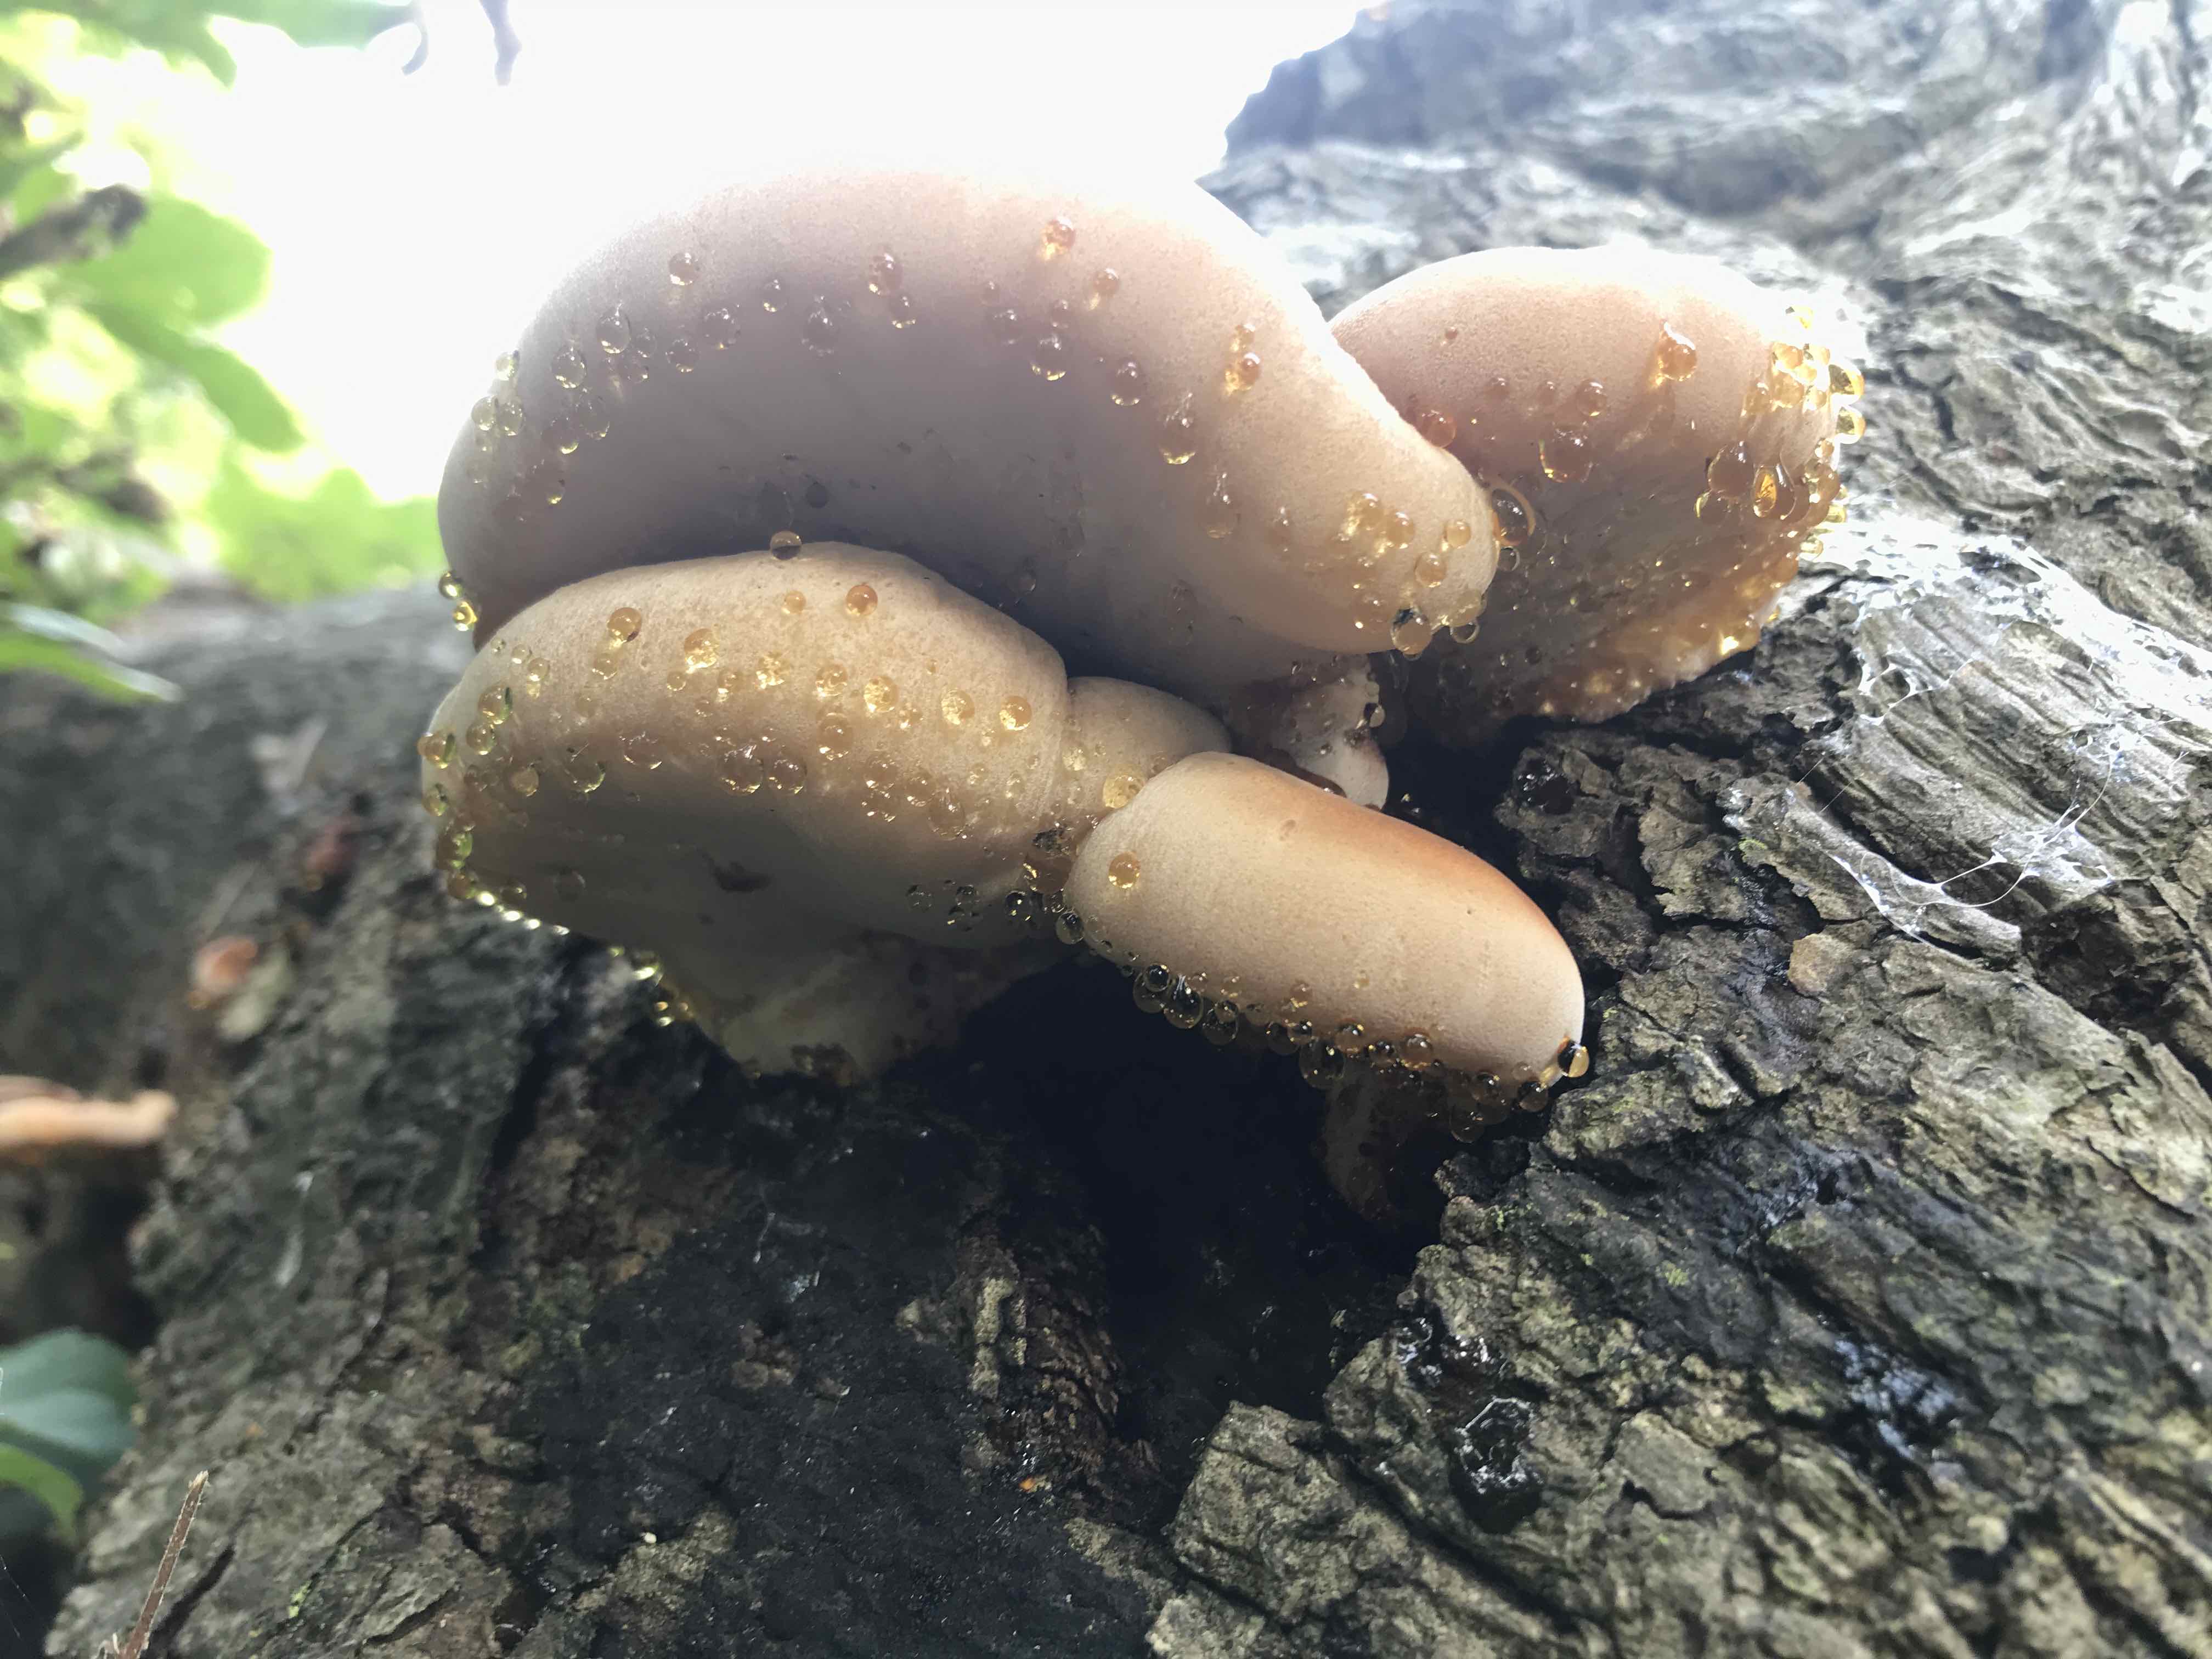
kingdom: Fungi
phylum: Basidiomycota
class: Agaricomycetes
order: Polyporales
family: Ischnodermataceae
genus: Ischnoderma
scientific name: Ischnoderma resinosum
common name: løv-tjæreporesvamp
